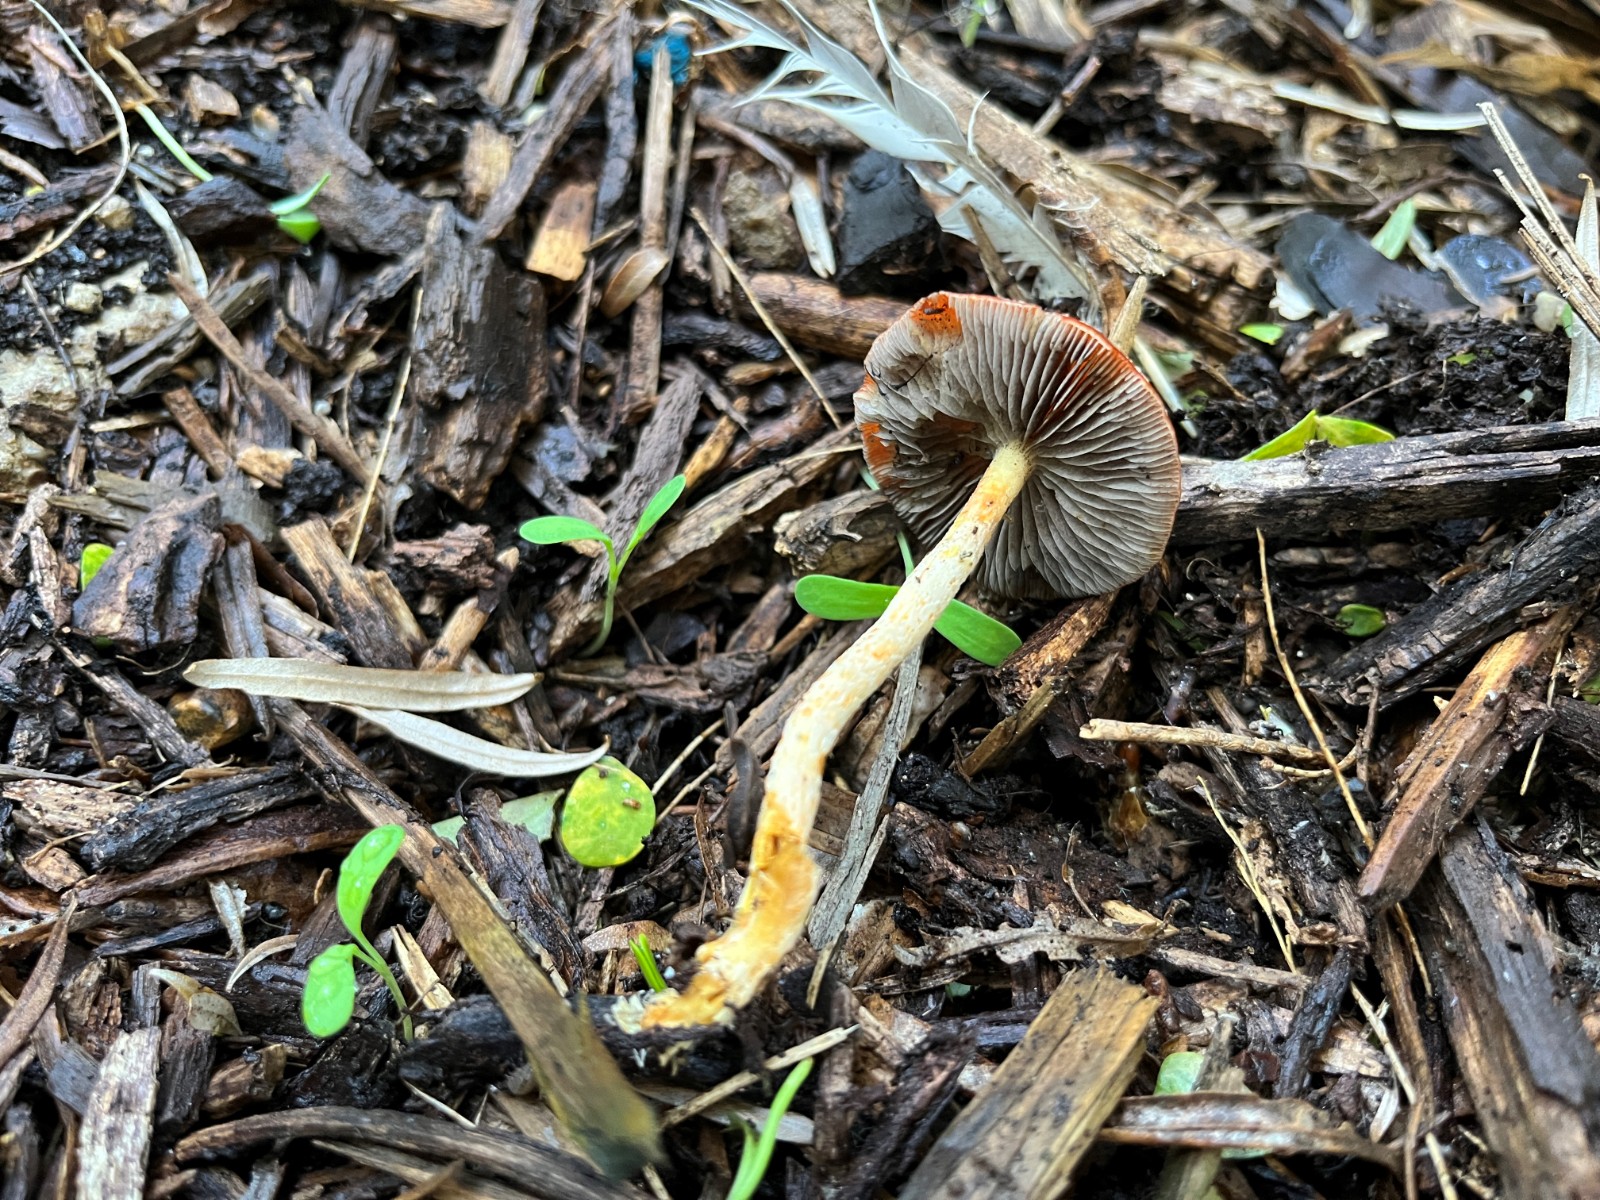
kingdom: Fungi
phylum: Basidiomycota
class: Agaricomycetes
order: Agaricales
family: Strophariaceae
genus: Leratiomyces
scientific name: Leratiomyces ceres
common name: orange bredblad
